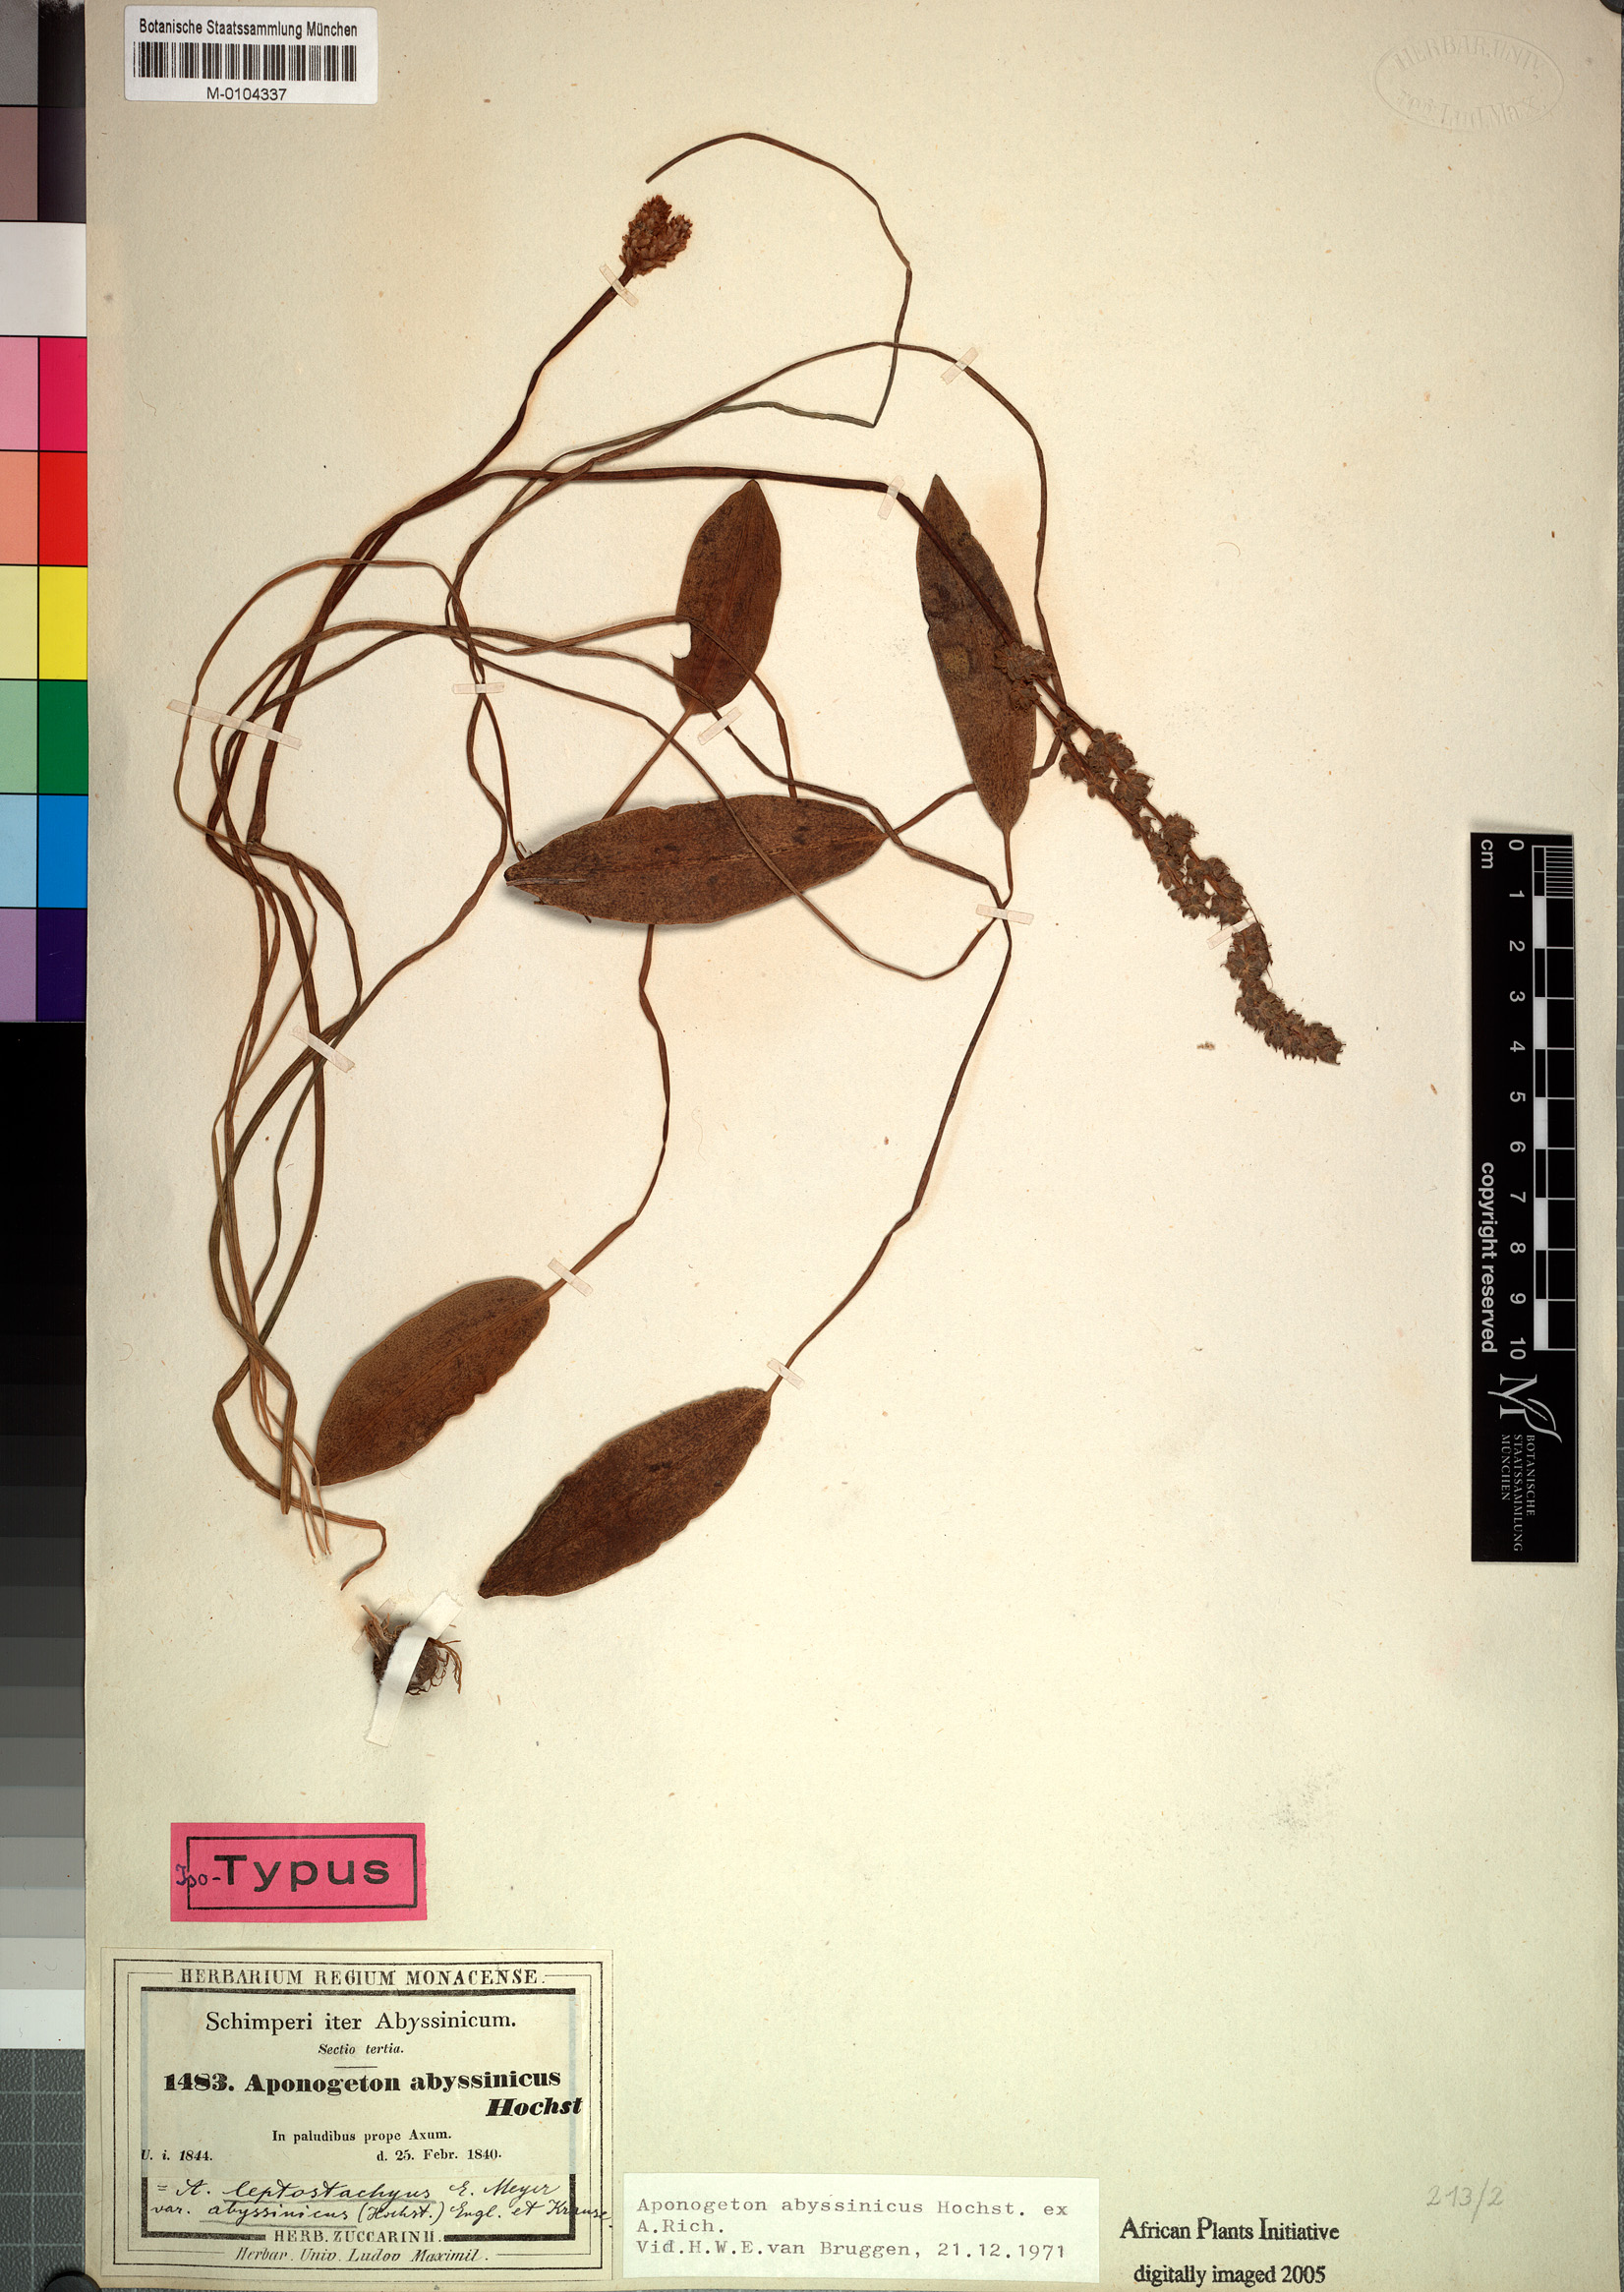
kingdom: Plantae
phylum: Tracheophyta
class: Liliopsida
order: Alismatales
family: Aponogetonaceae
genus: Aponogeton
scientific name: Aponogeton abyssinicus
